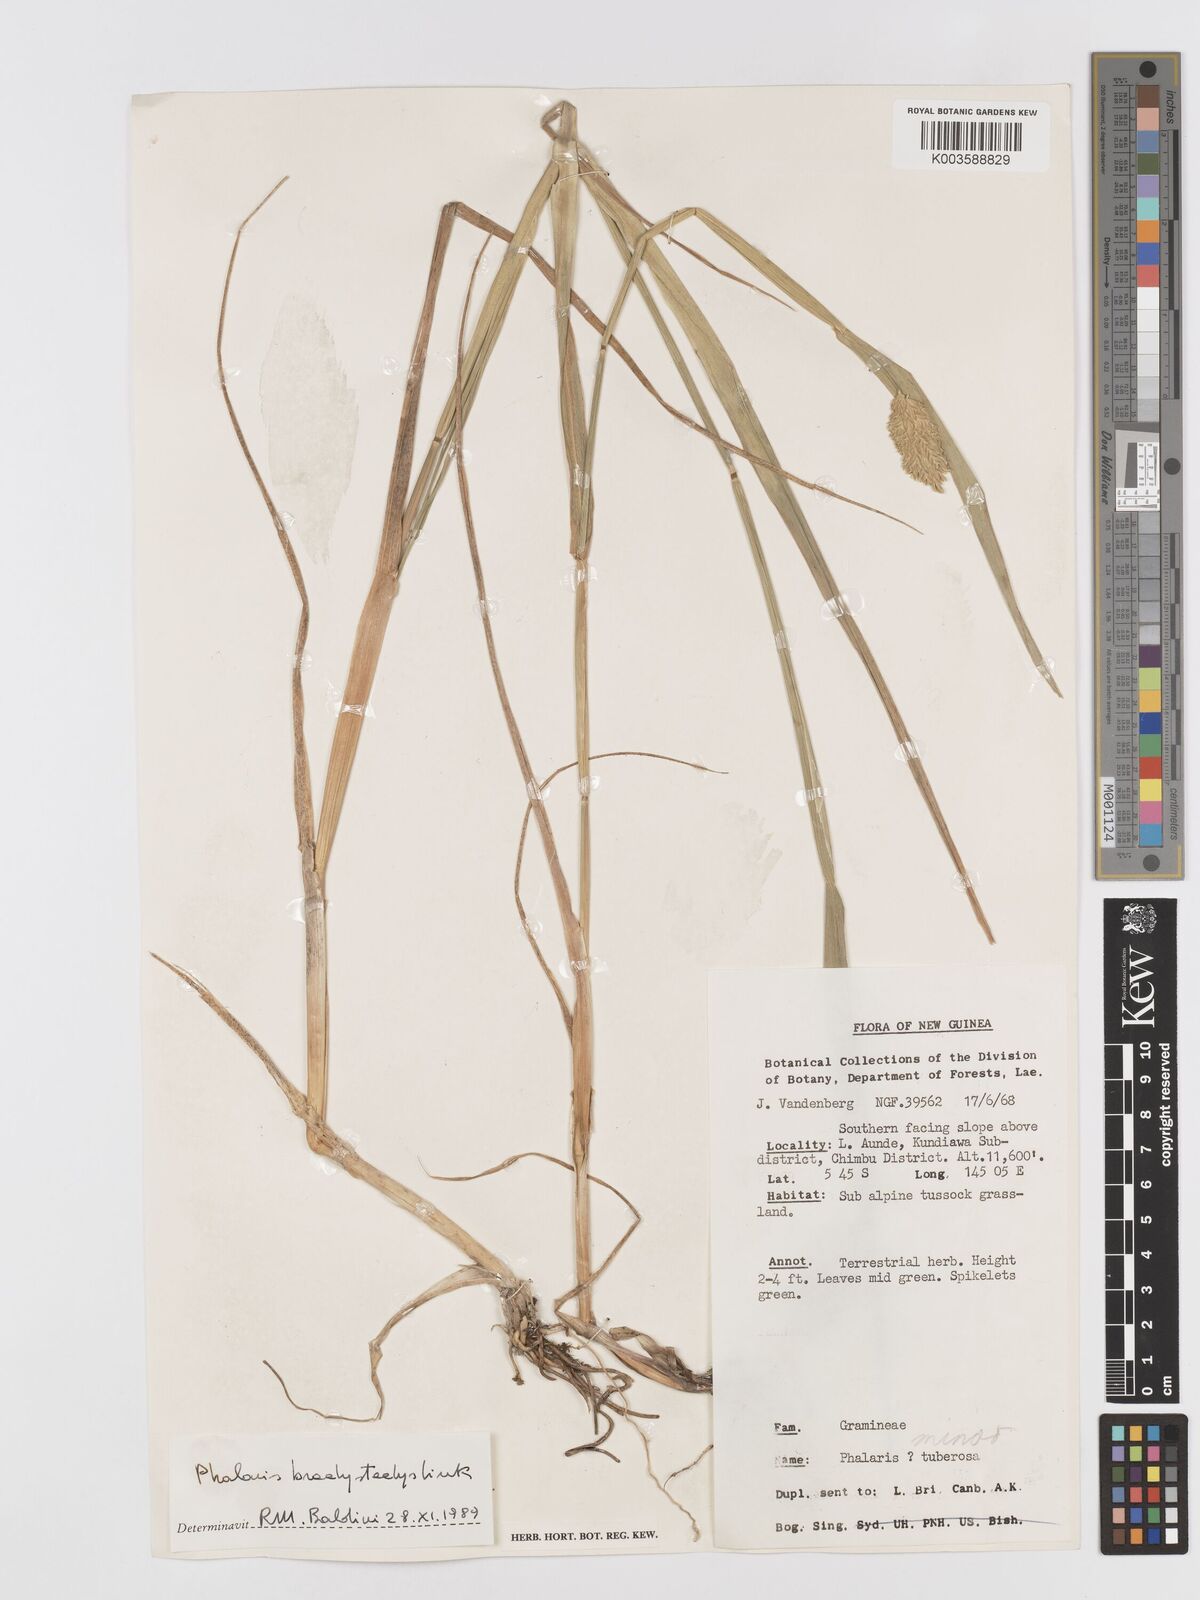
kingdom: Plantae
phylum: Tracheophyta
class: Liliopsida
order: Poales
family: Poaceae
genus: Phalaris
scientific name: Phalaris brachystachys
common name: Confused canary-grass
